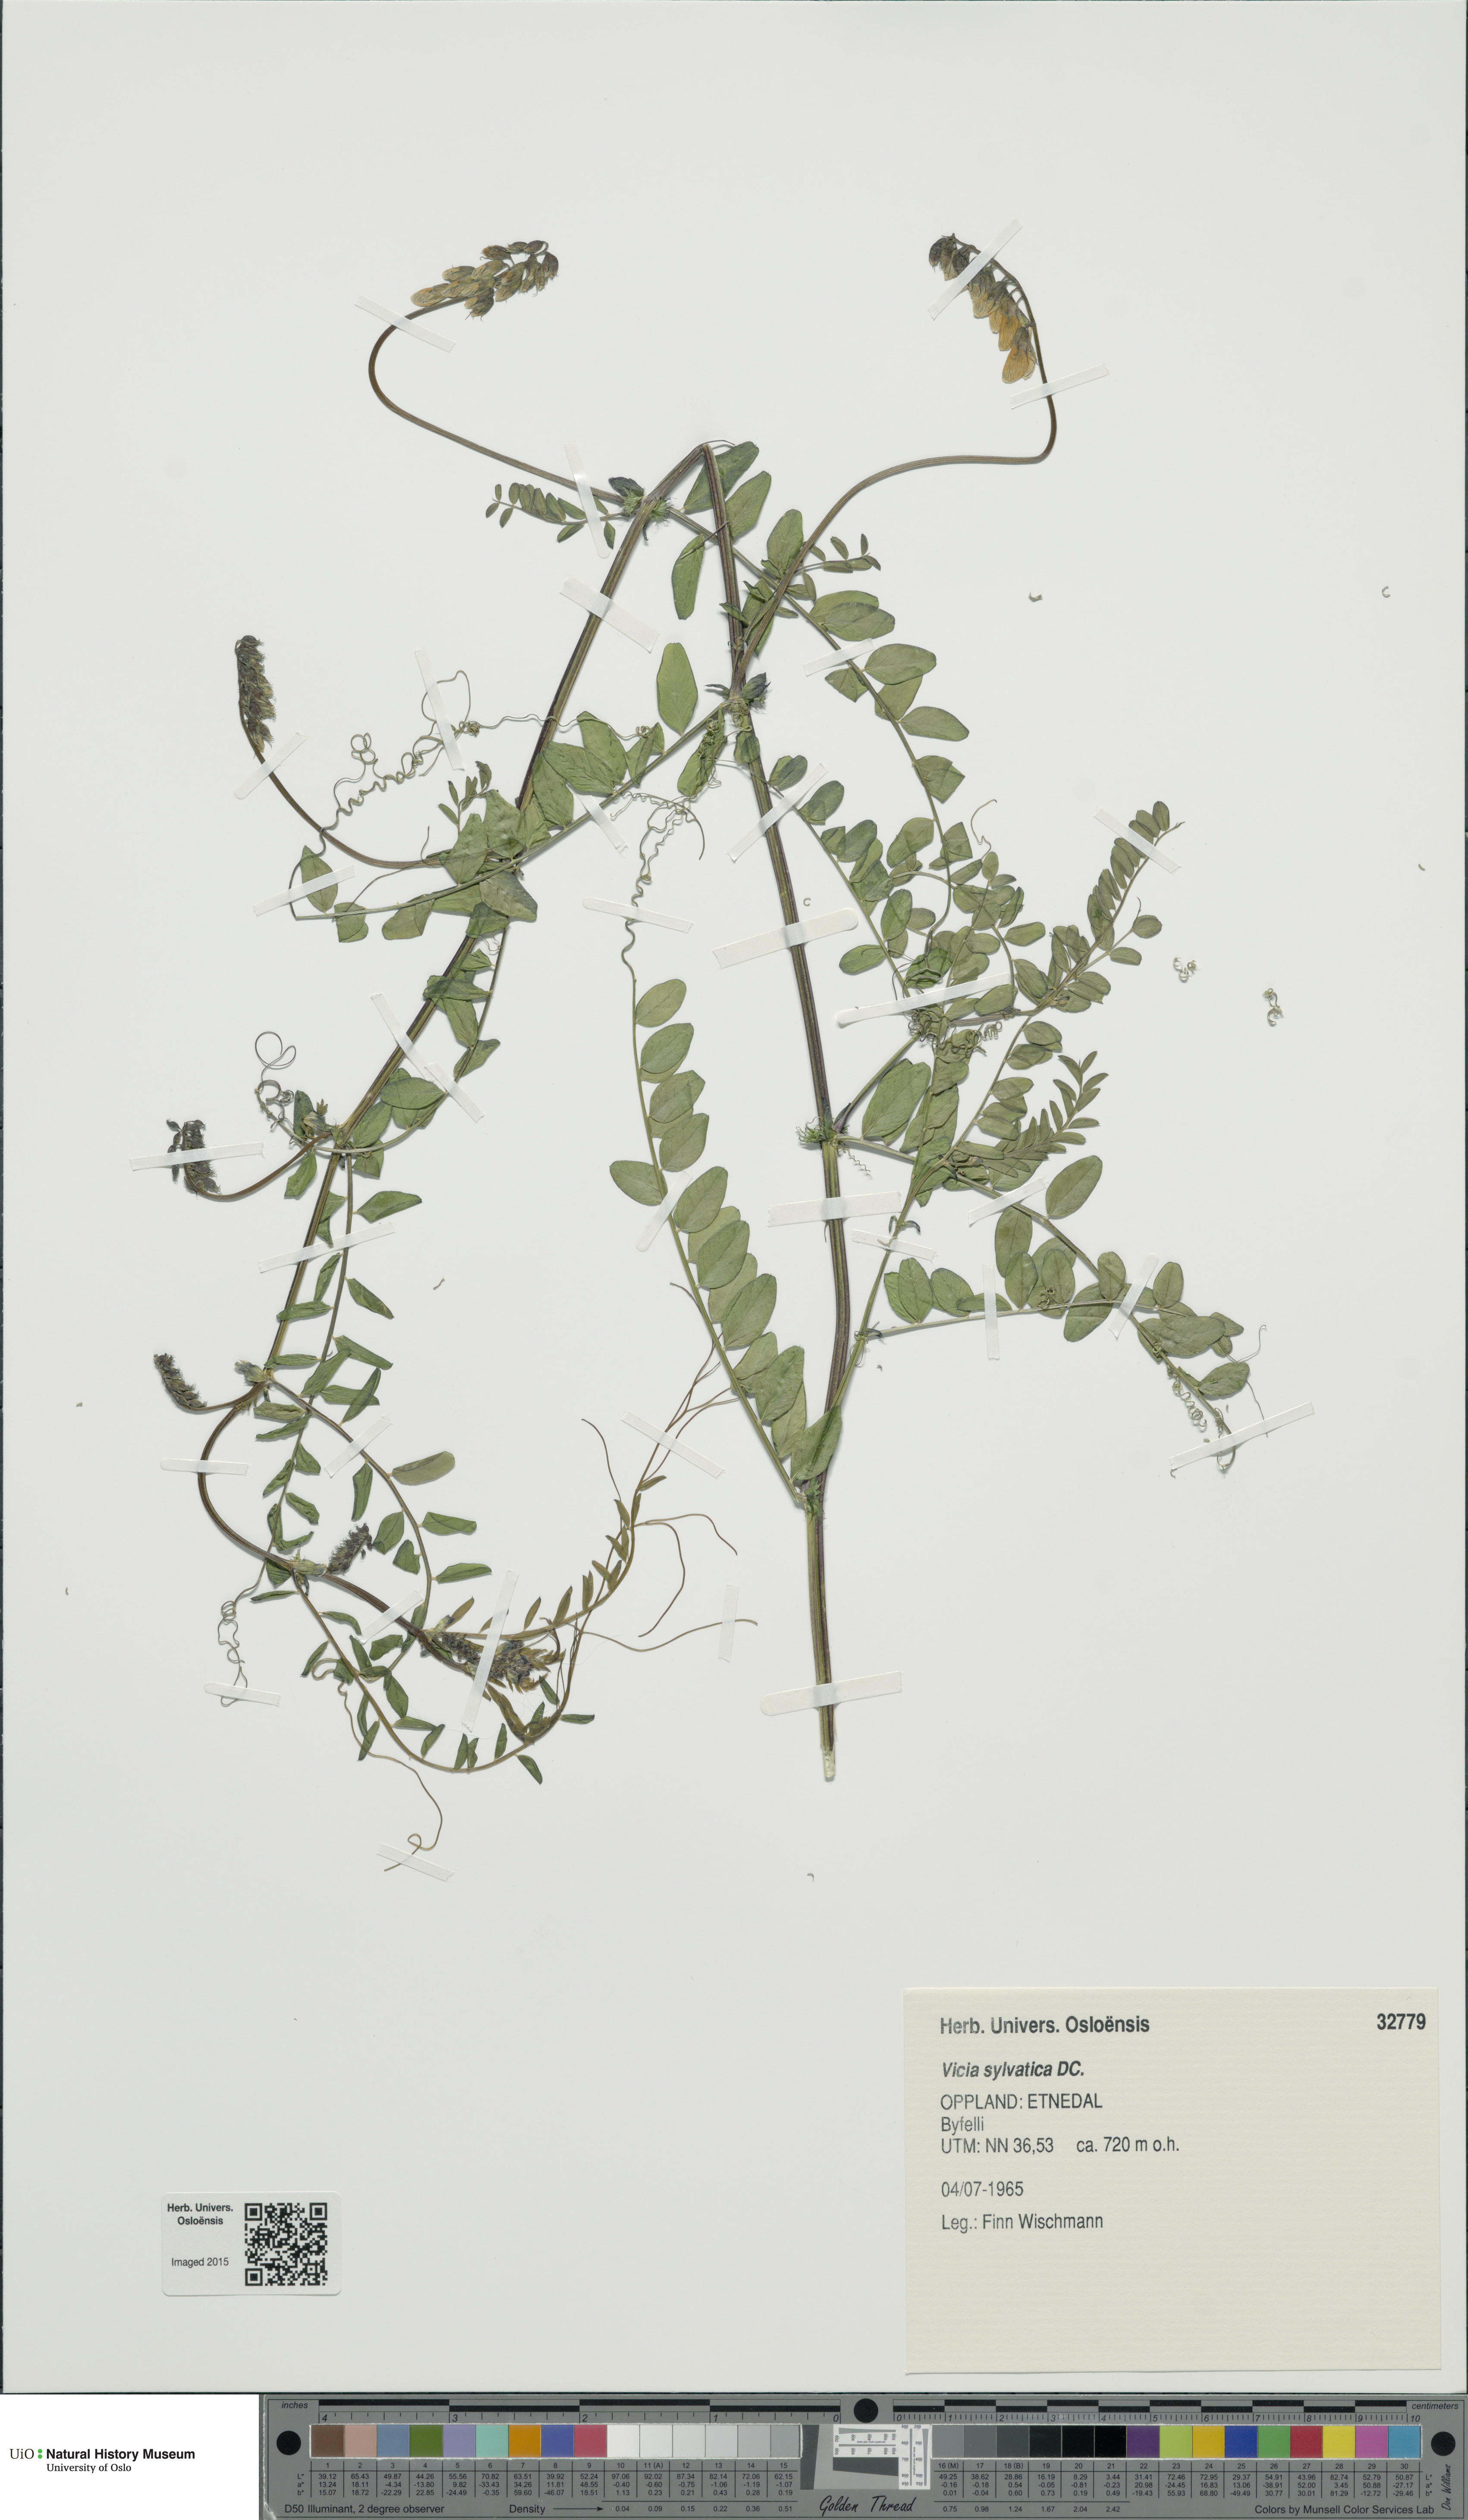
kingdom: Plantae
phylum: Tracheophyta
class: Magnoliopsida
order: Fabales
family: Fabaceae
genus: Vicia
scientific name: Vicia sylvatica
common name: Wood vetch
